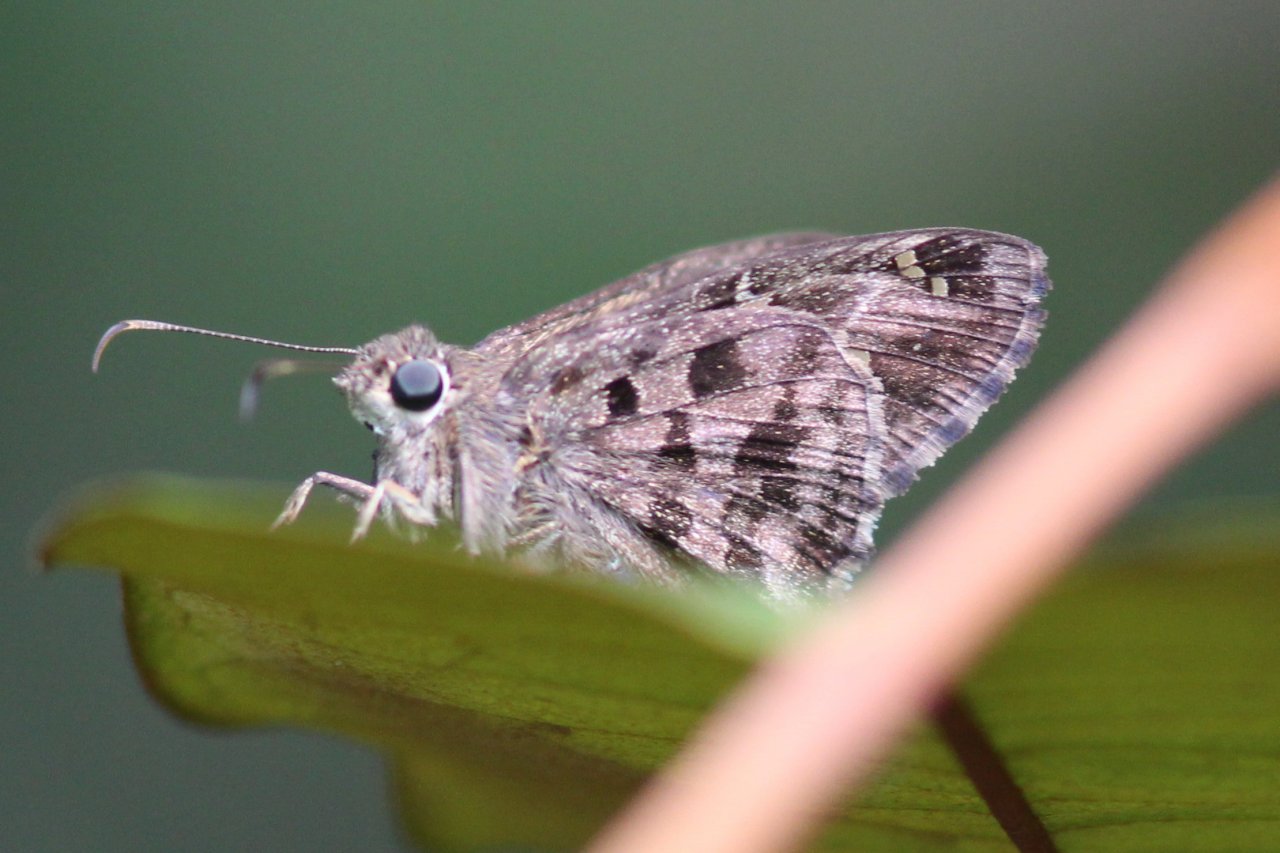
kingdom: Animalia
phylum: Arthropoda
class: Insecta
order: Lepidoptera
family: Hesperiidae
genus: Urbanus
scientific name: Urbanus dorantes
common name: Dorantes Longtail
